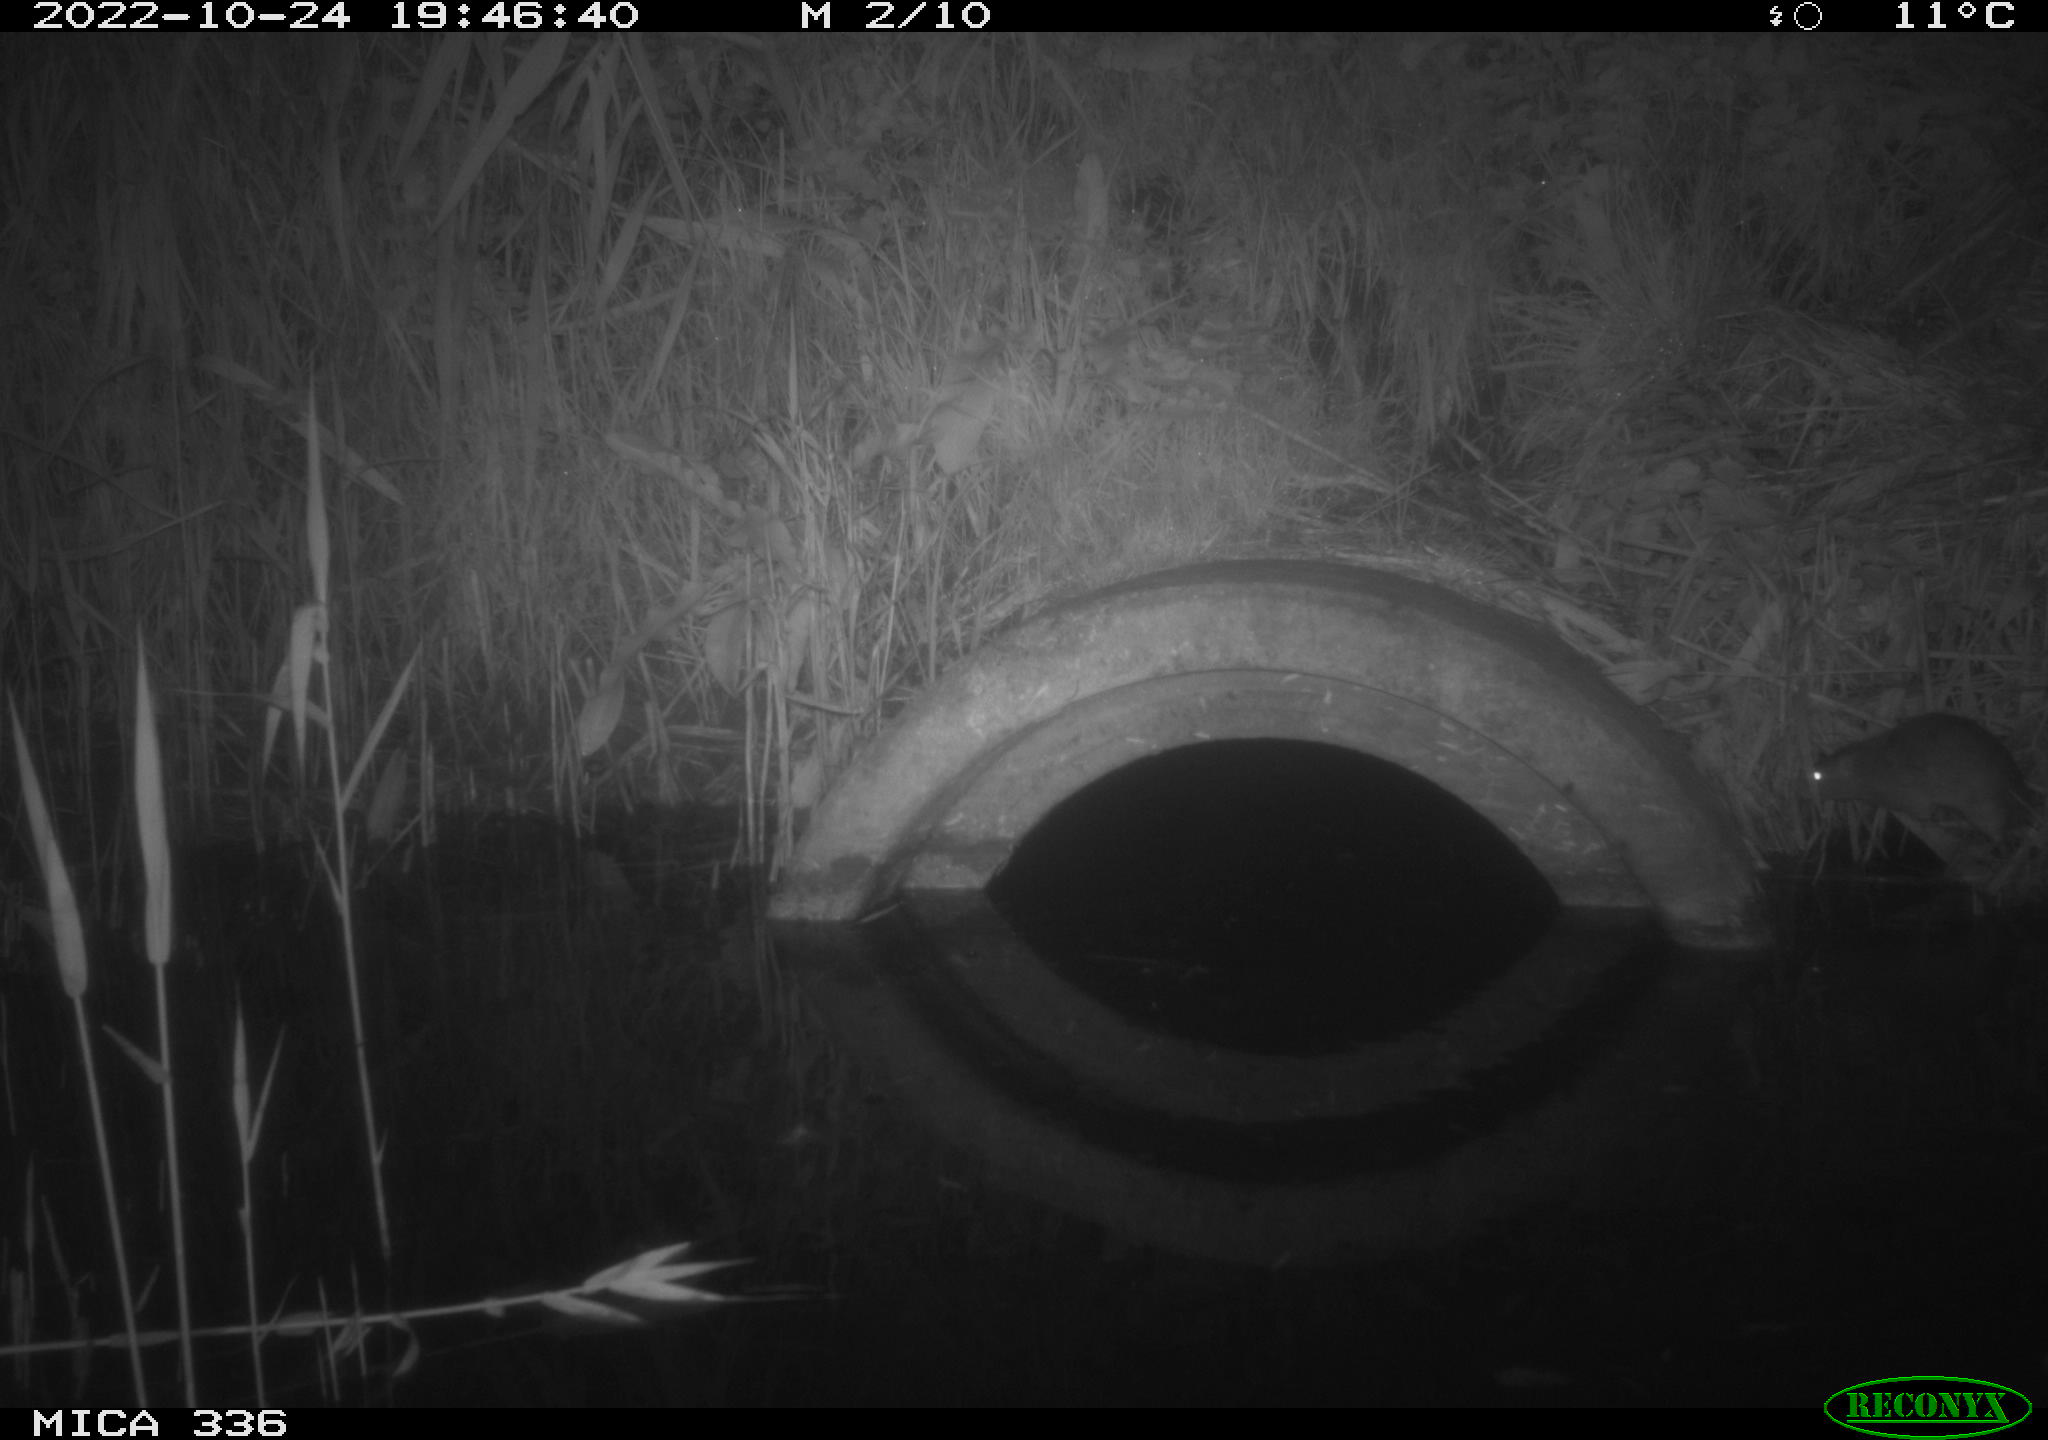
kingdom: Animalia
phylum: Chordata
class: Mammalia
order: Rodentia
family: Muridae
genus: Rattus
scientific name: Rattus norvegicus
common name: Brown rat
